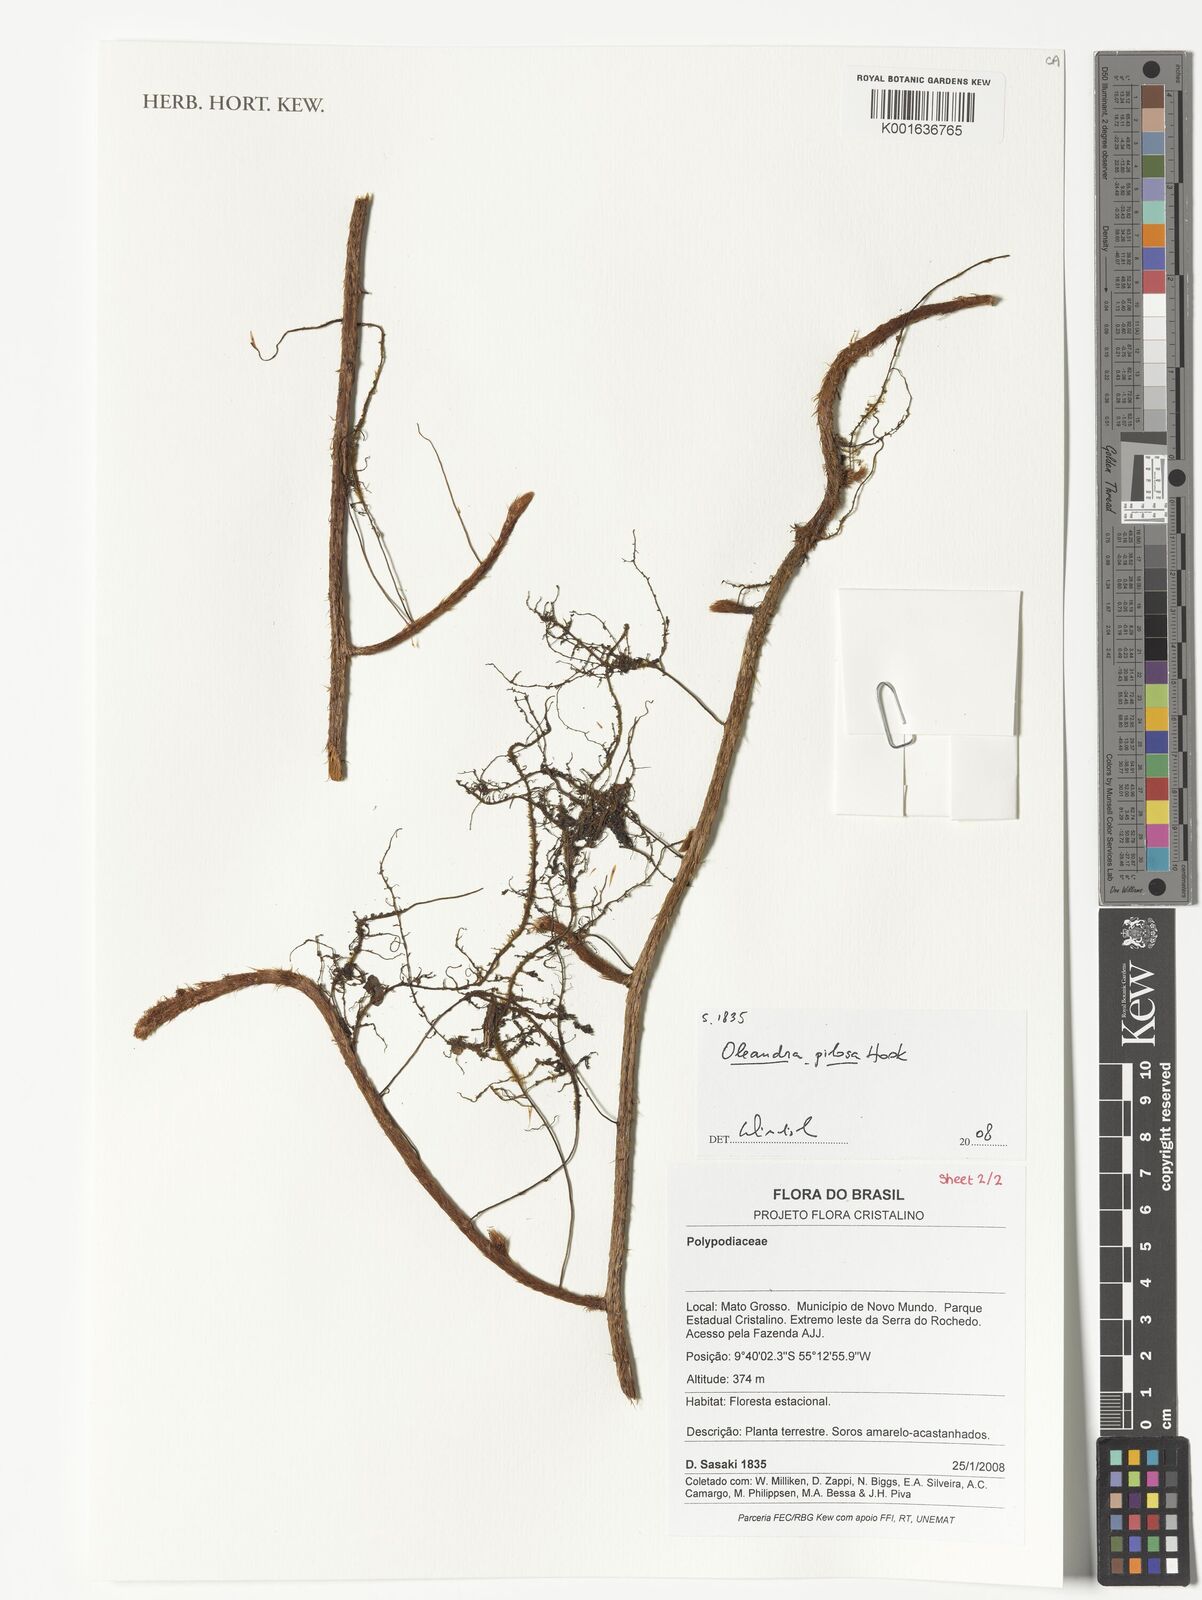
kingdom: Plantae
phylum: Tracheophyta
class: Polypodiopsida
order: Polypodiales
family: Oleandraceae
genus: Oleandra
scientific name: Oleandra pilosa
